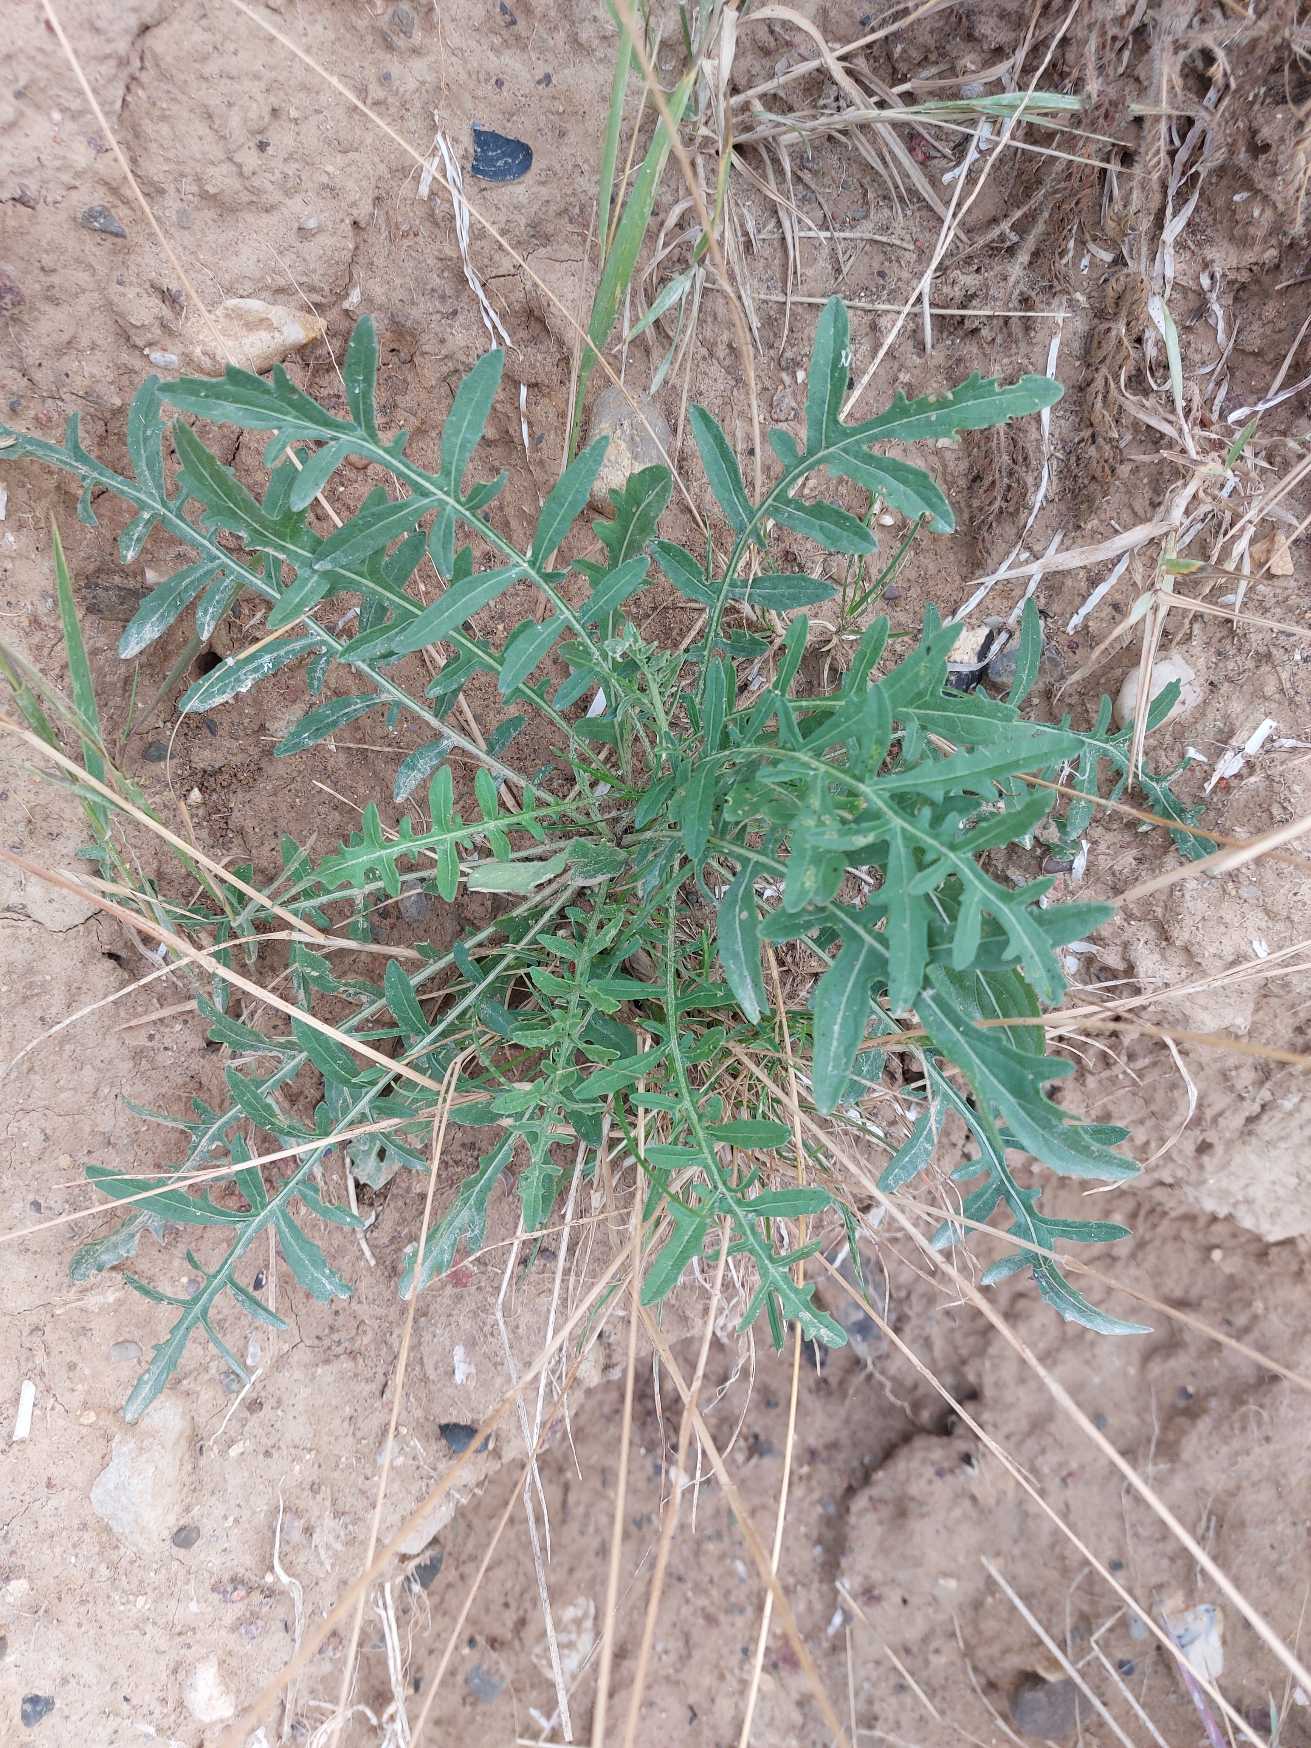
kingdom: Plantae
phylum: Tracheophyta
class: Magnoliopsida
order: Asterales
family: Asteraceae
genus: Centaurea
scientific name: Centaurea scabiosa
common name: Stor knopurt
